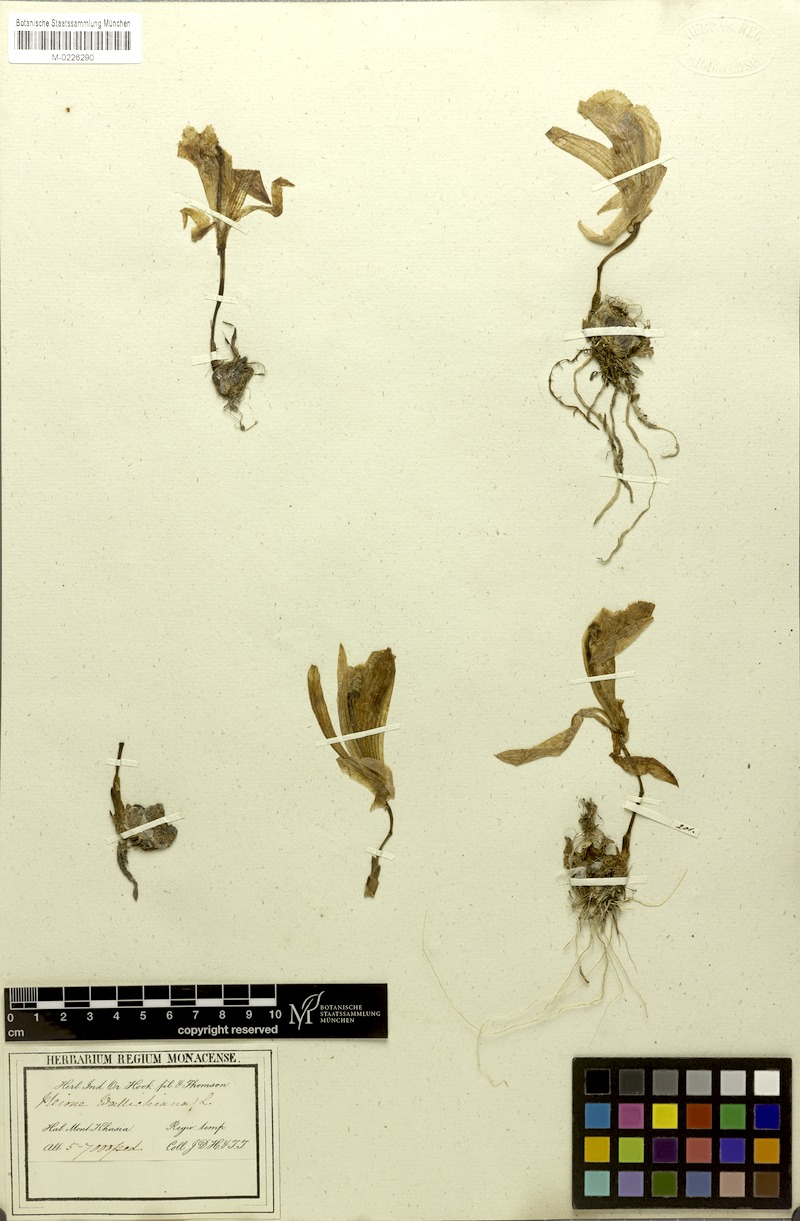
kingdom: Plantae
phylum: Tracheophyta
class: Liliopsida
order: Asparagales
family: Orchidaceae
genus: Pleione
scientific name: Pleione praecox
